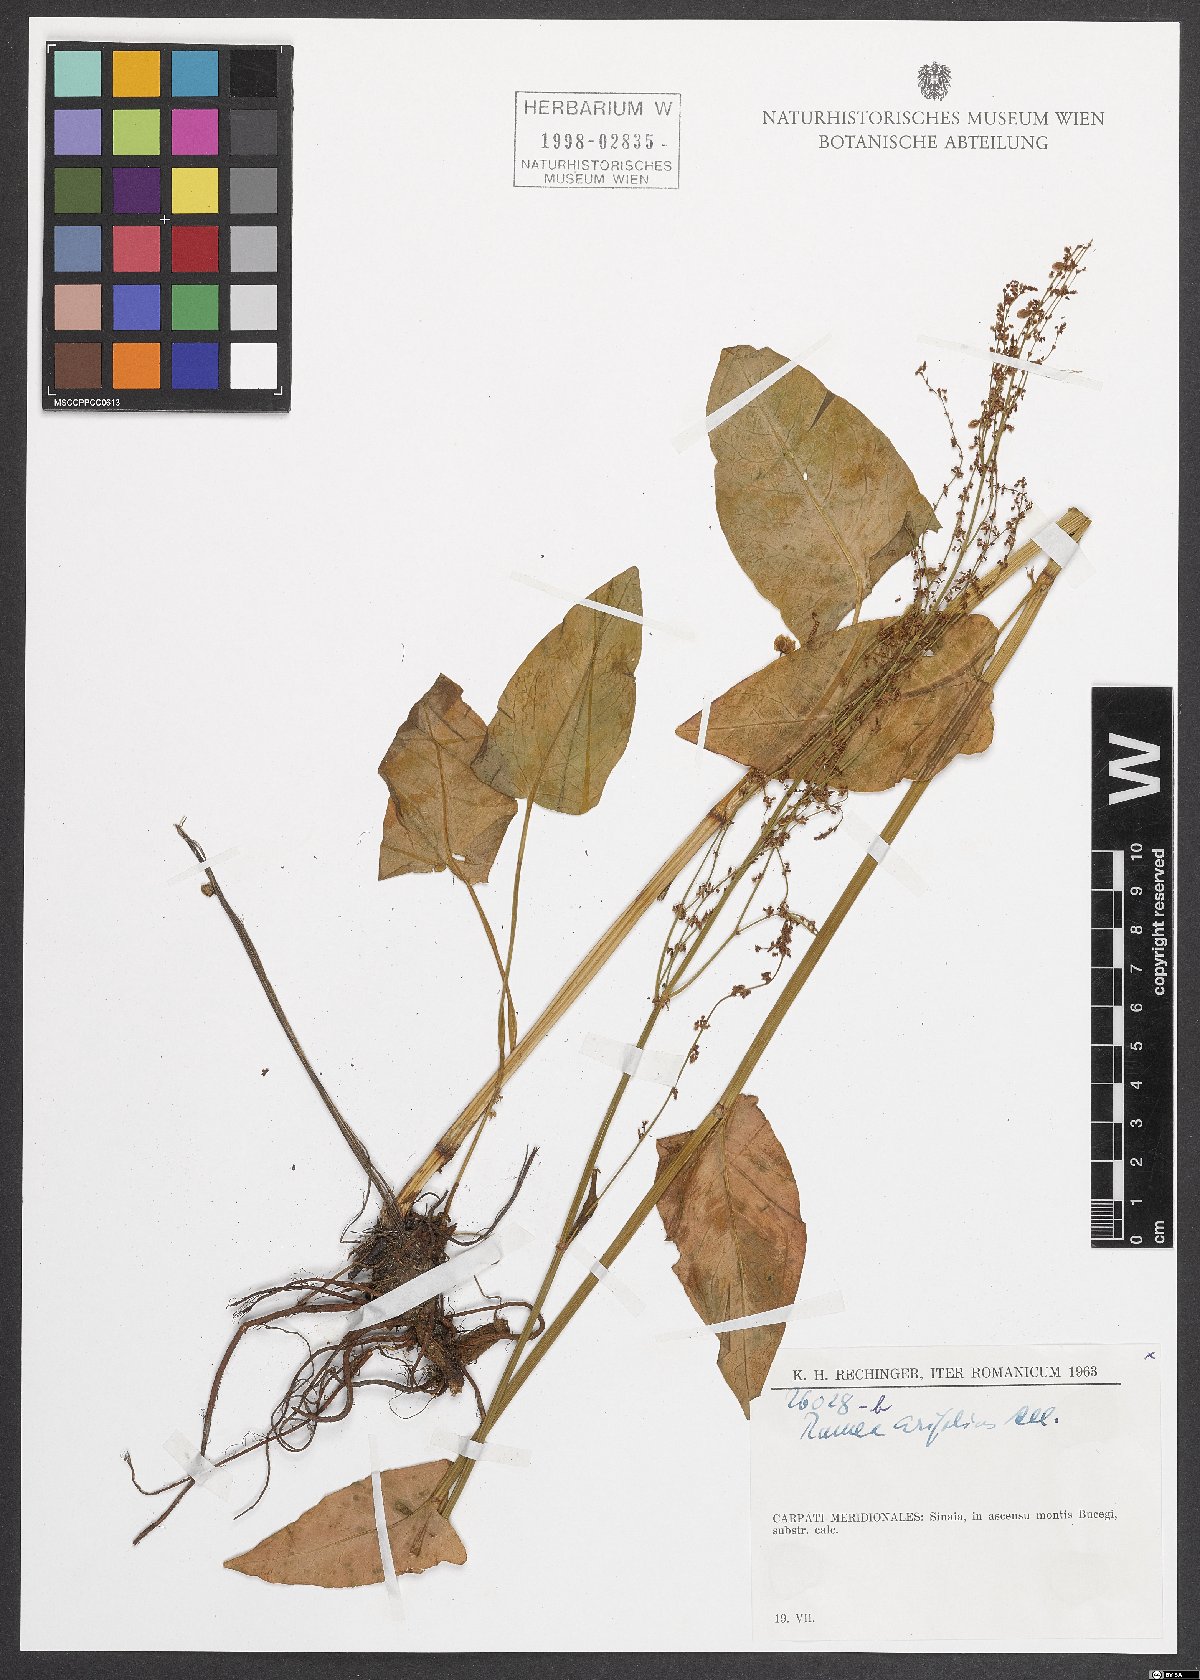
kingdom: Plantae
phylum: Tracheophyta
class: Magnoliopsida
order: Caryophyllales
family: Polygonaceae
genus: Rumex
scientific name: Rumex arifolius
